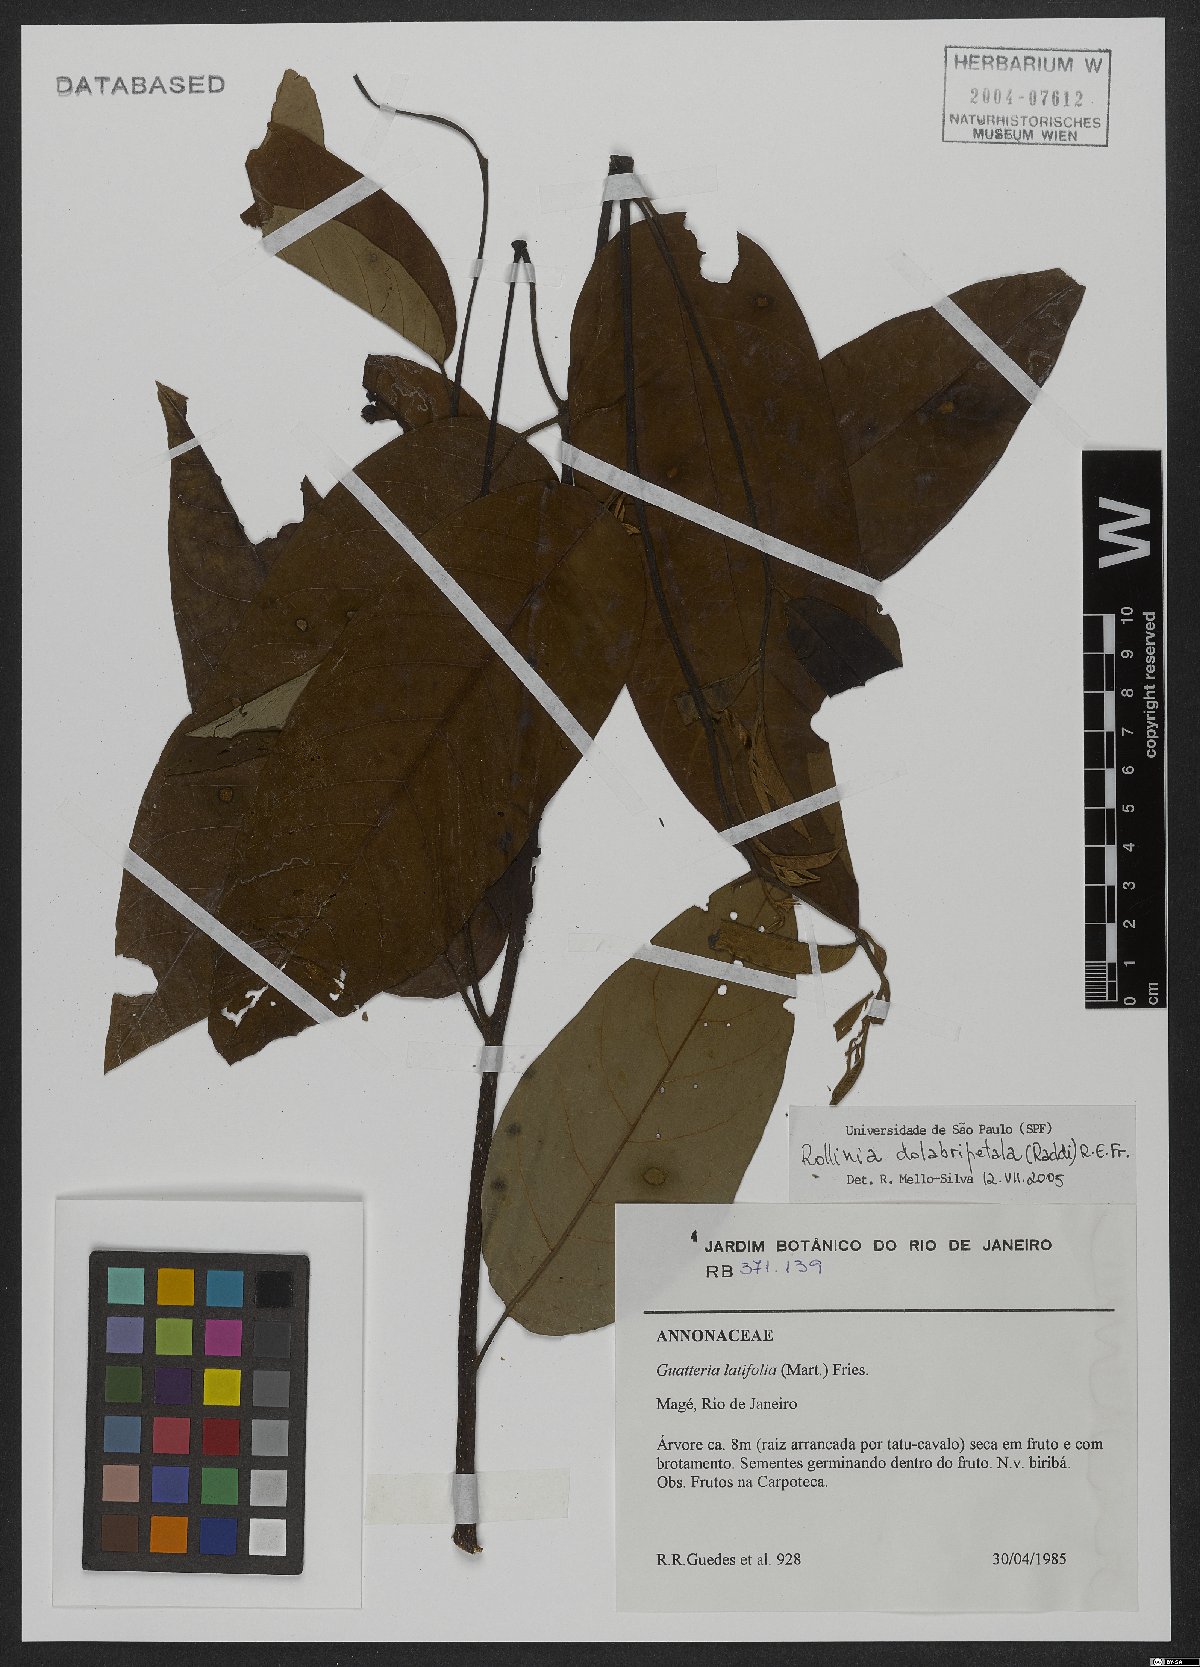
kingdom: Plantae
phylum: Tracheophyta
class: Magnoliopsida
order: Magnoliales
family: Annonaceae
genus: Annona
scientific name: Annona dolabripetala
